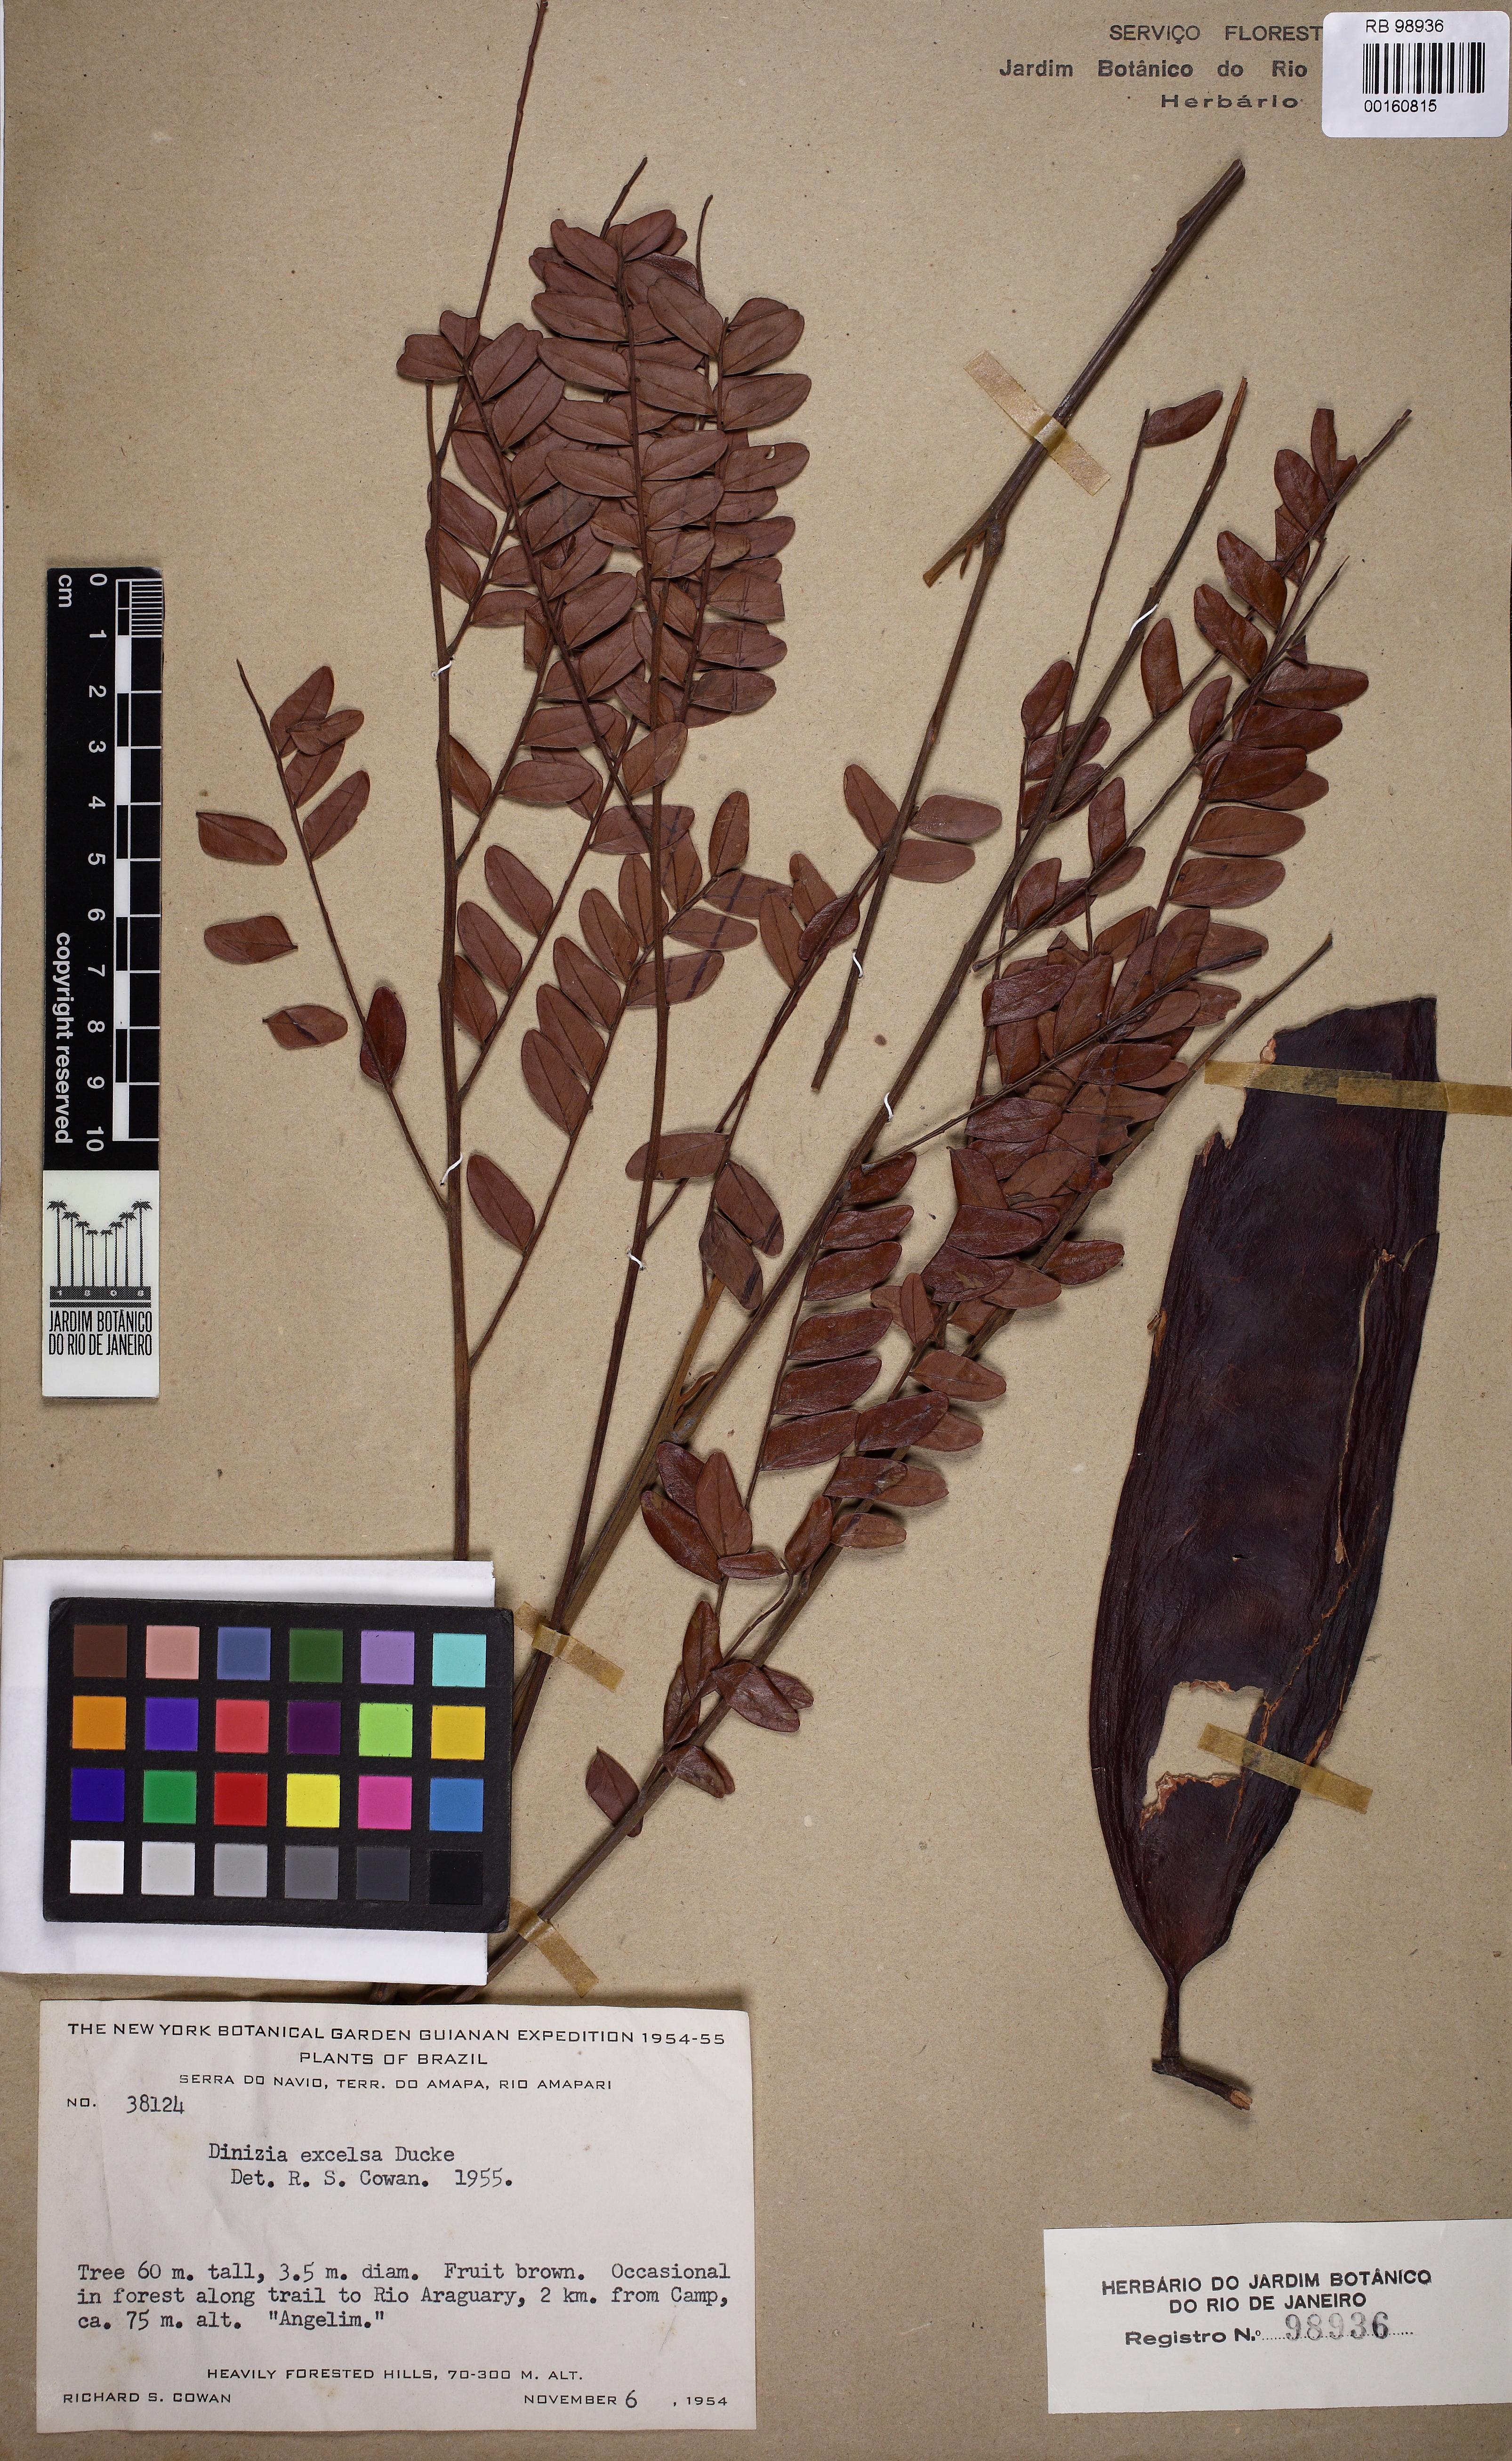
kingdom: Plantae
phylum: Tracheophyta
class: Magnoliopsida
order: Fabales
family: Fabaceae
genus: Dinizia
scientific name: Dinizia excelsa
